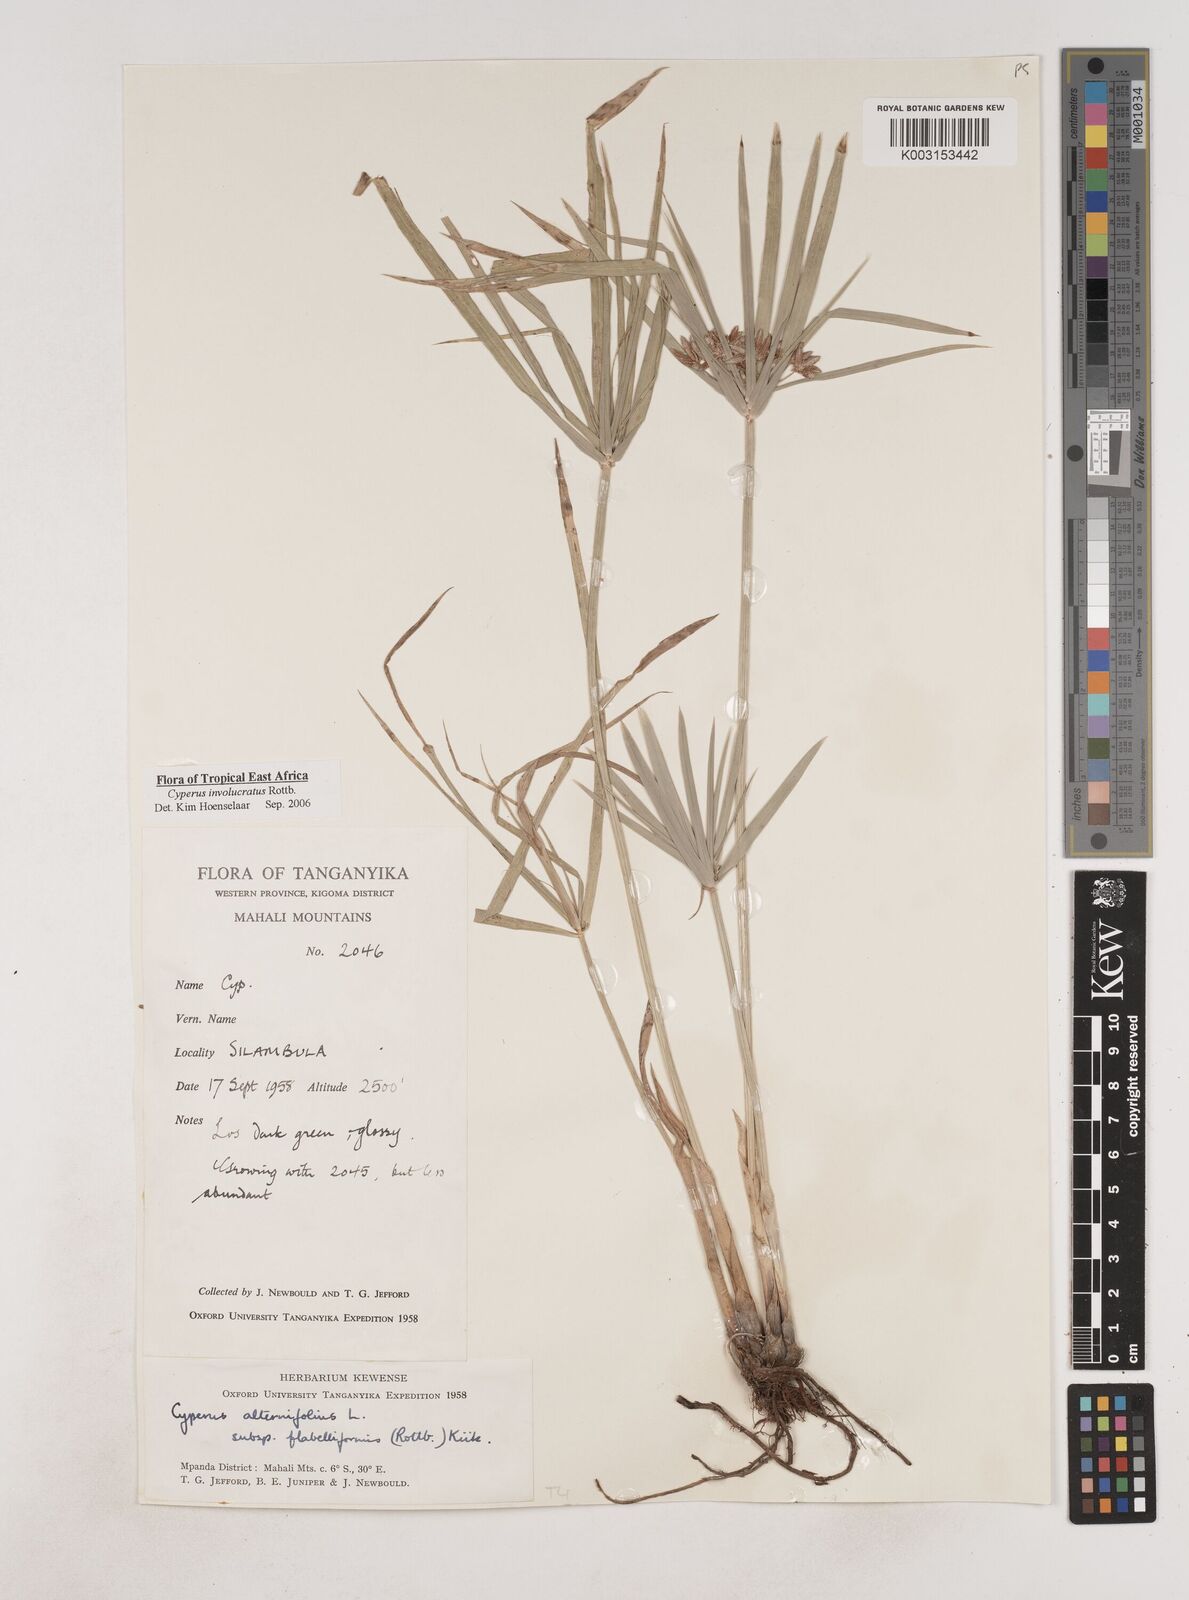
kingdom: Plantae
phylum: Tracheophyta
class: Liliopsida
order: Poales
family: Cyperaceae
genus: Cyperus
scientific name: Cyperus alternifolius
